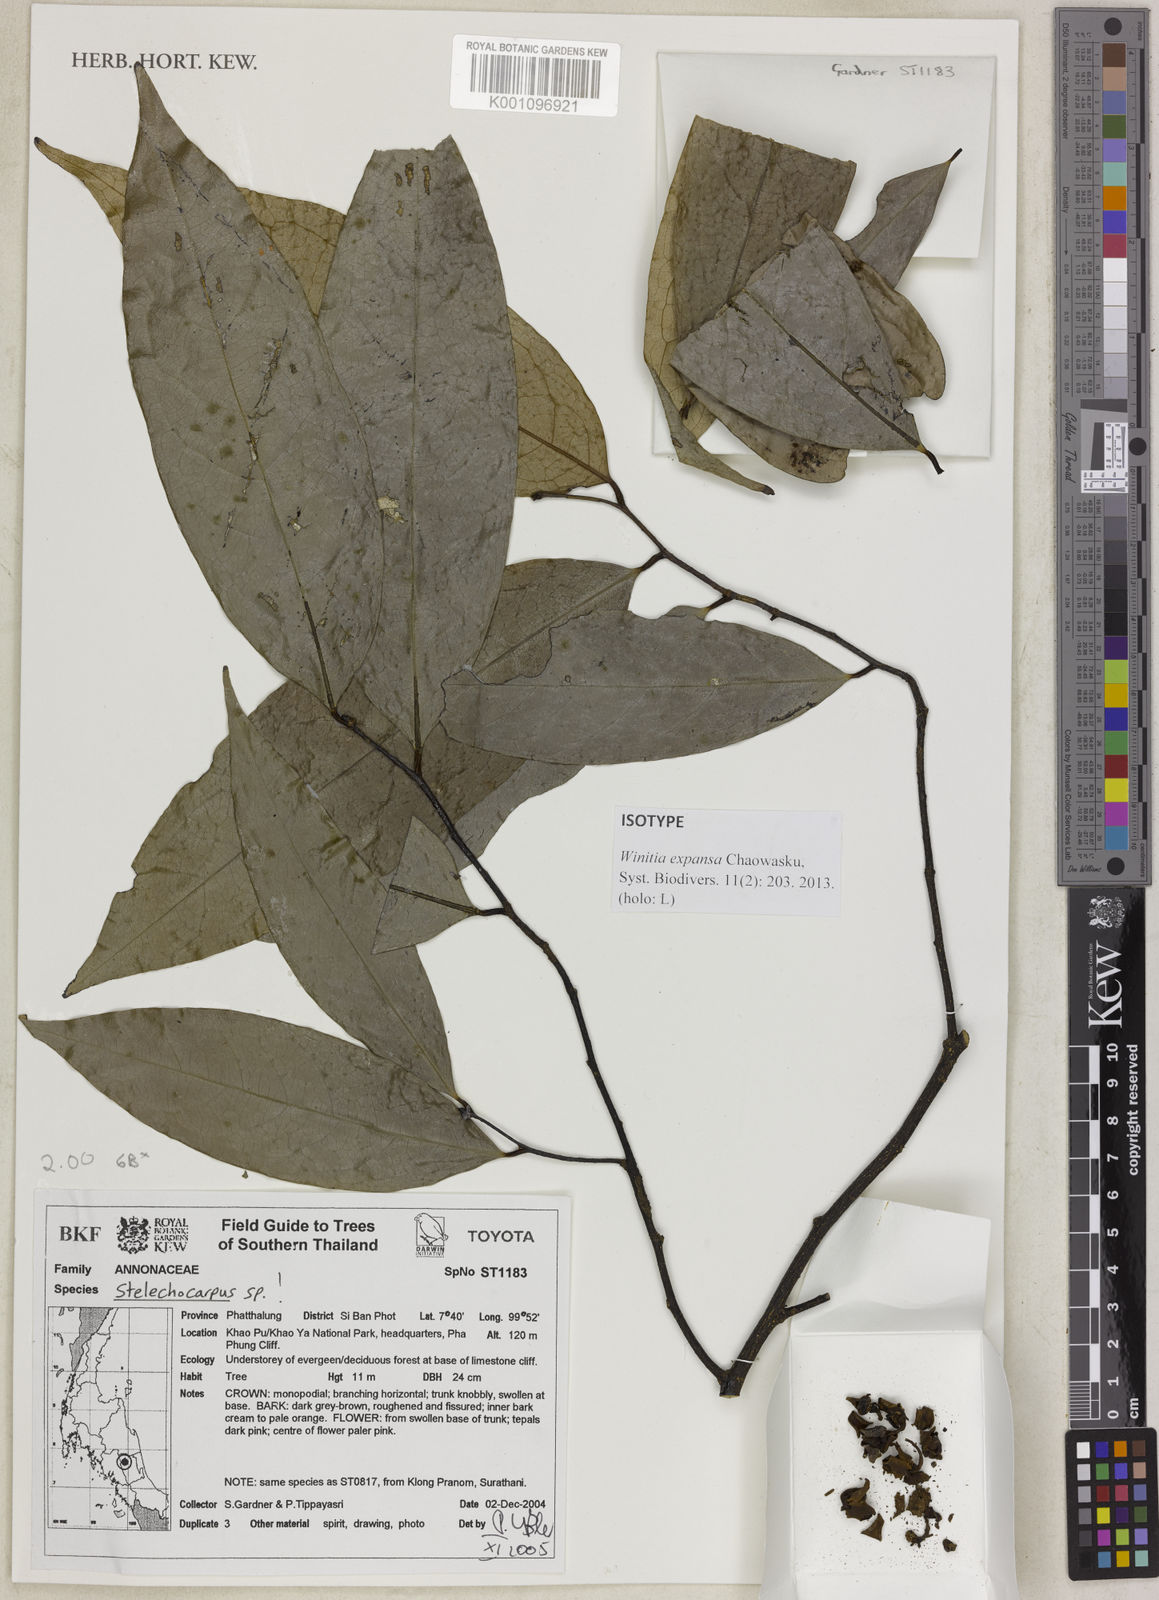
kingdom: Plantae
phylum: Tracheophyta
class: Magnoliopsida
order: Magnoliales
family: Annonaceae
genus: Stelechocarpus
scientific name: Stelechocarpus
